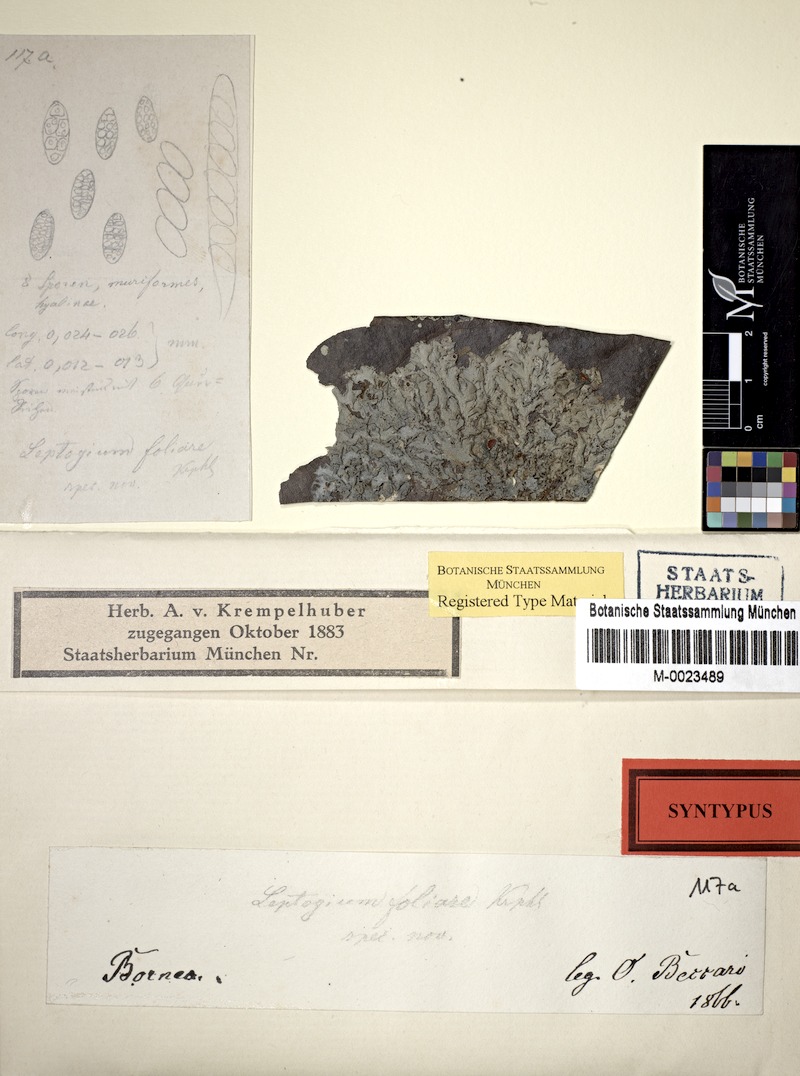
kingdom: Fungi
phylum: Ascomycota
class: Lecanoromycetes
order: Peltigerales
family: Collemataceae
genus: Leptogium
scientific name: Leptogium
